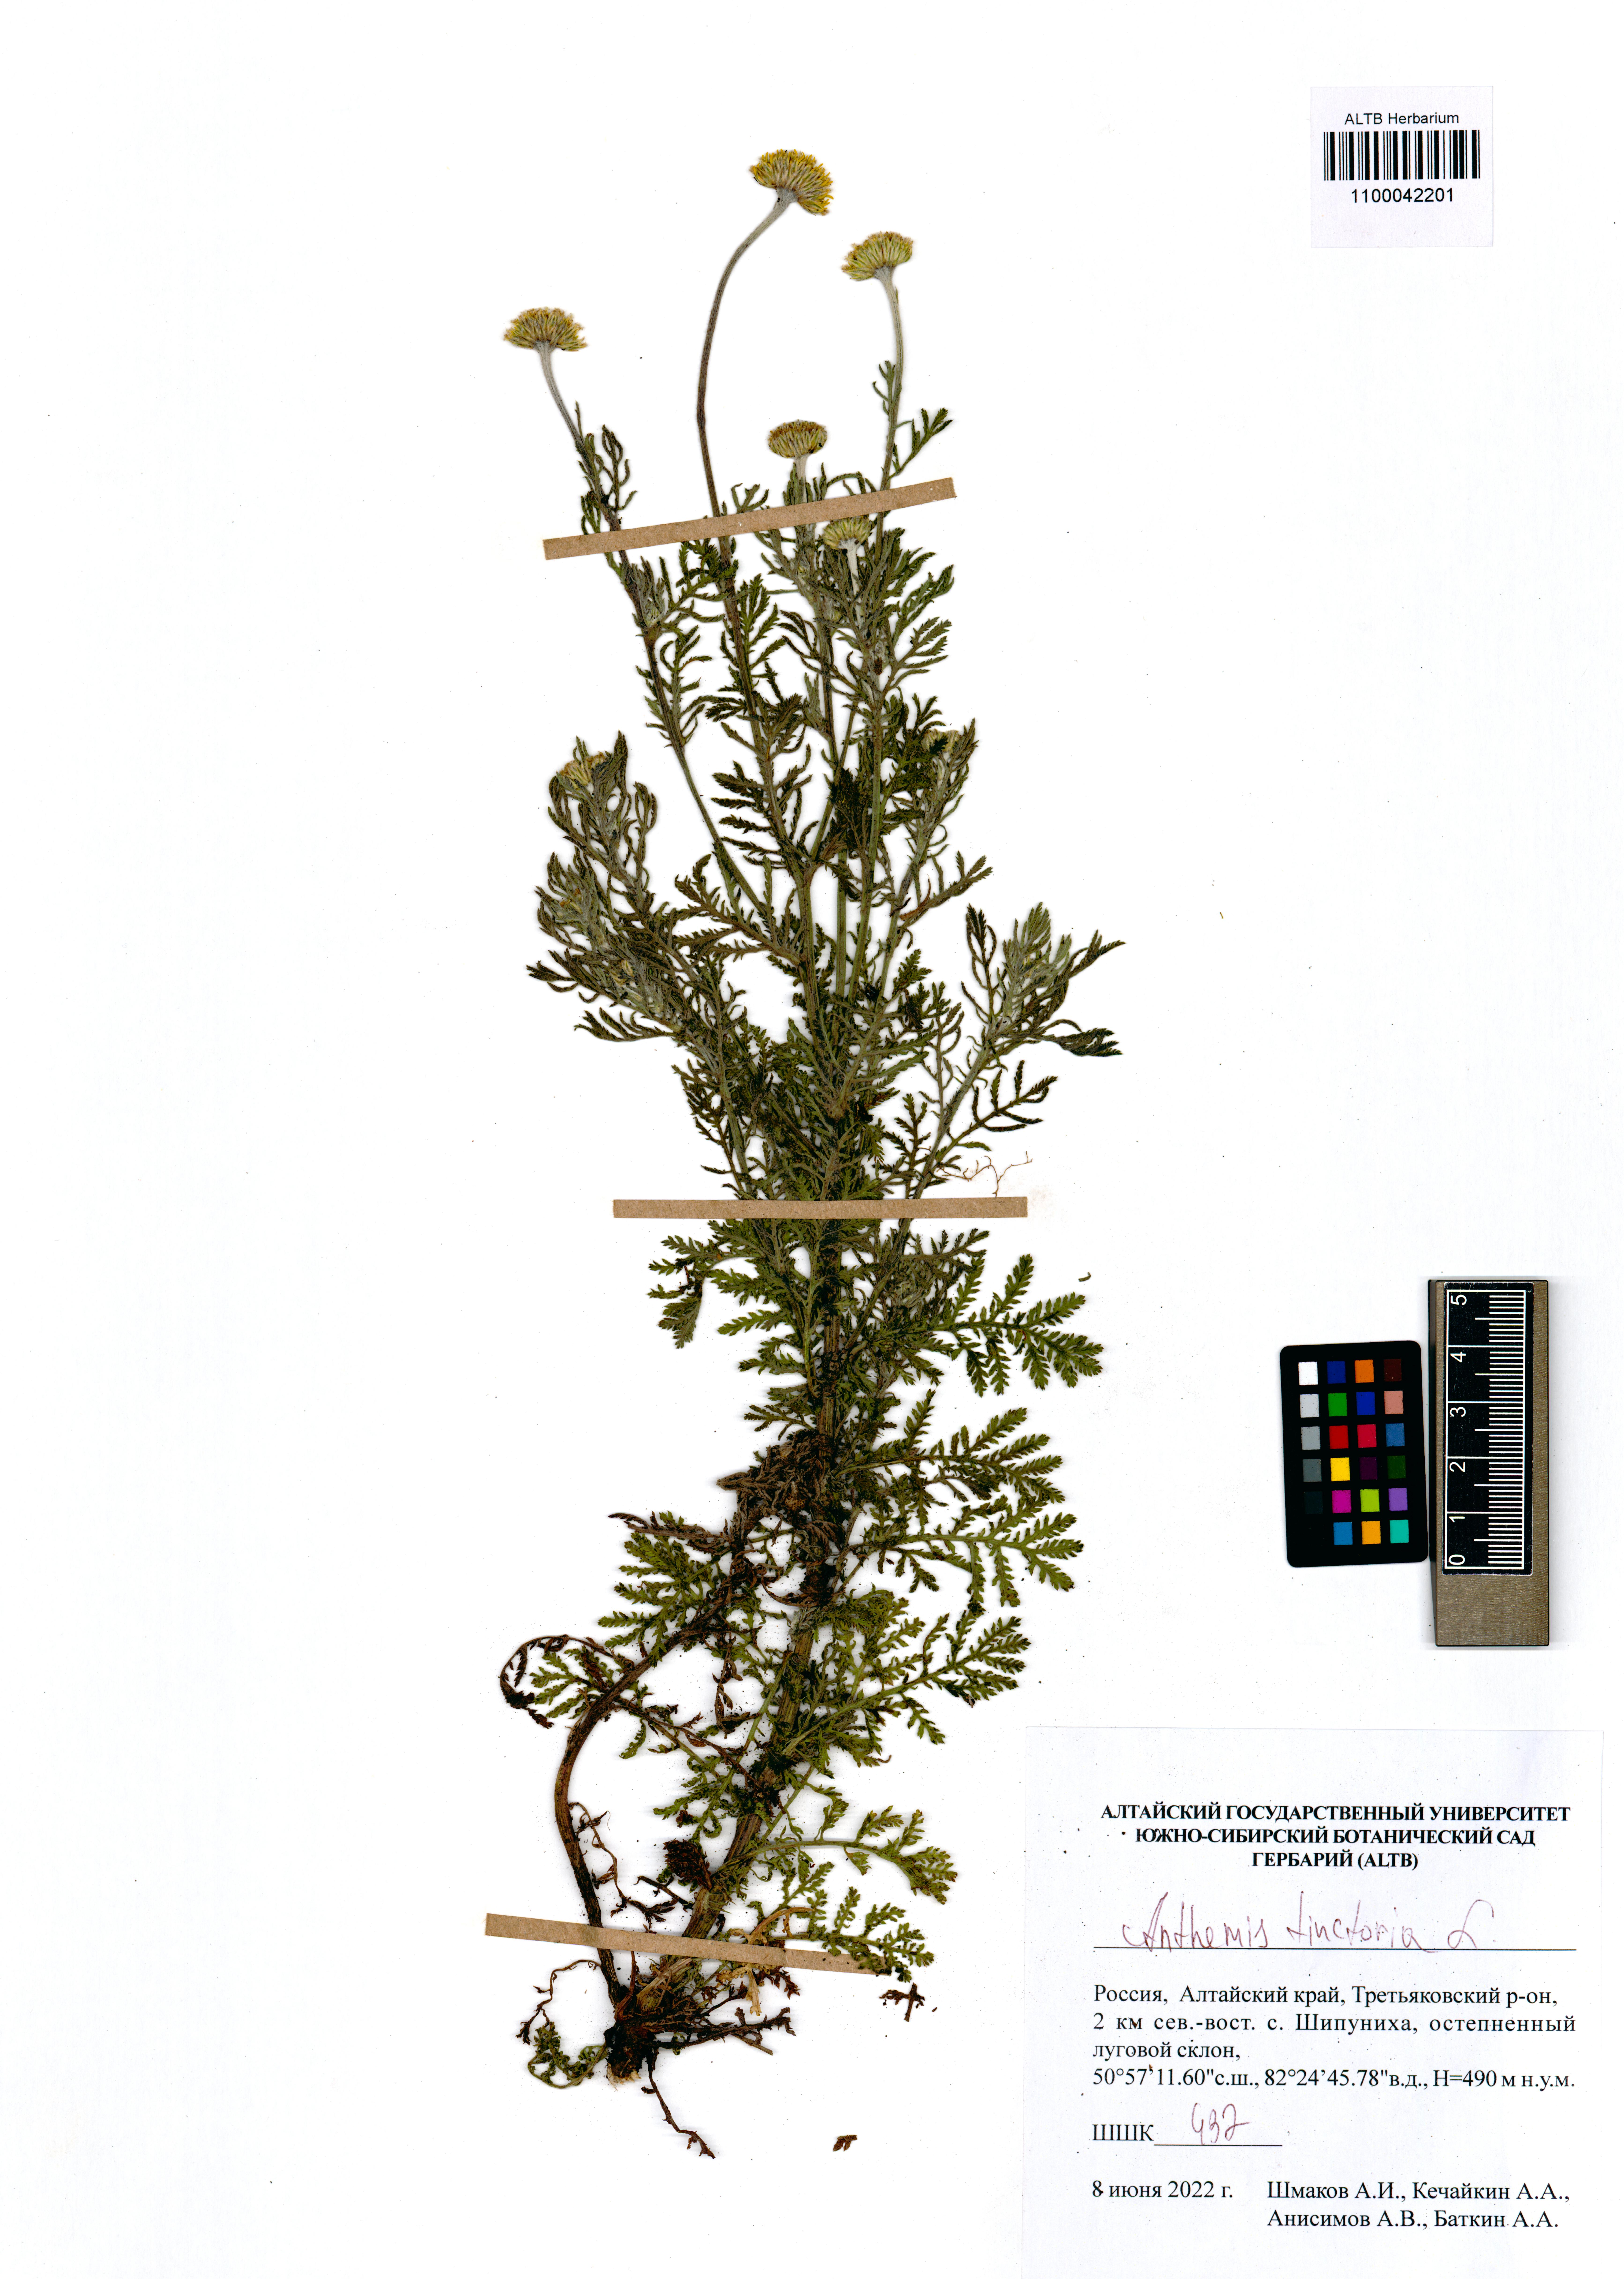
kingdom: Plantae
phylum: Tracheophyta
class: Magnoliopsida
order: Asterales
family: Asteraceae
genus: Cota
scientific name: Cota tinctoria
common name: Golden chamomile
